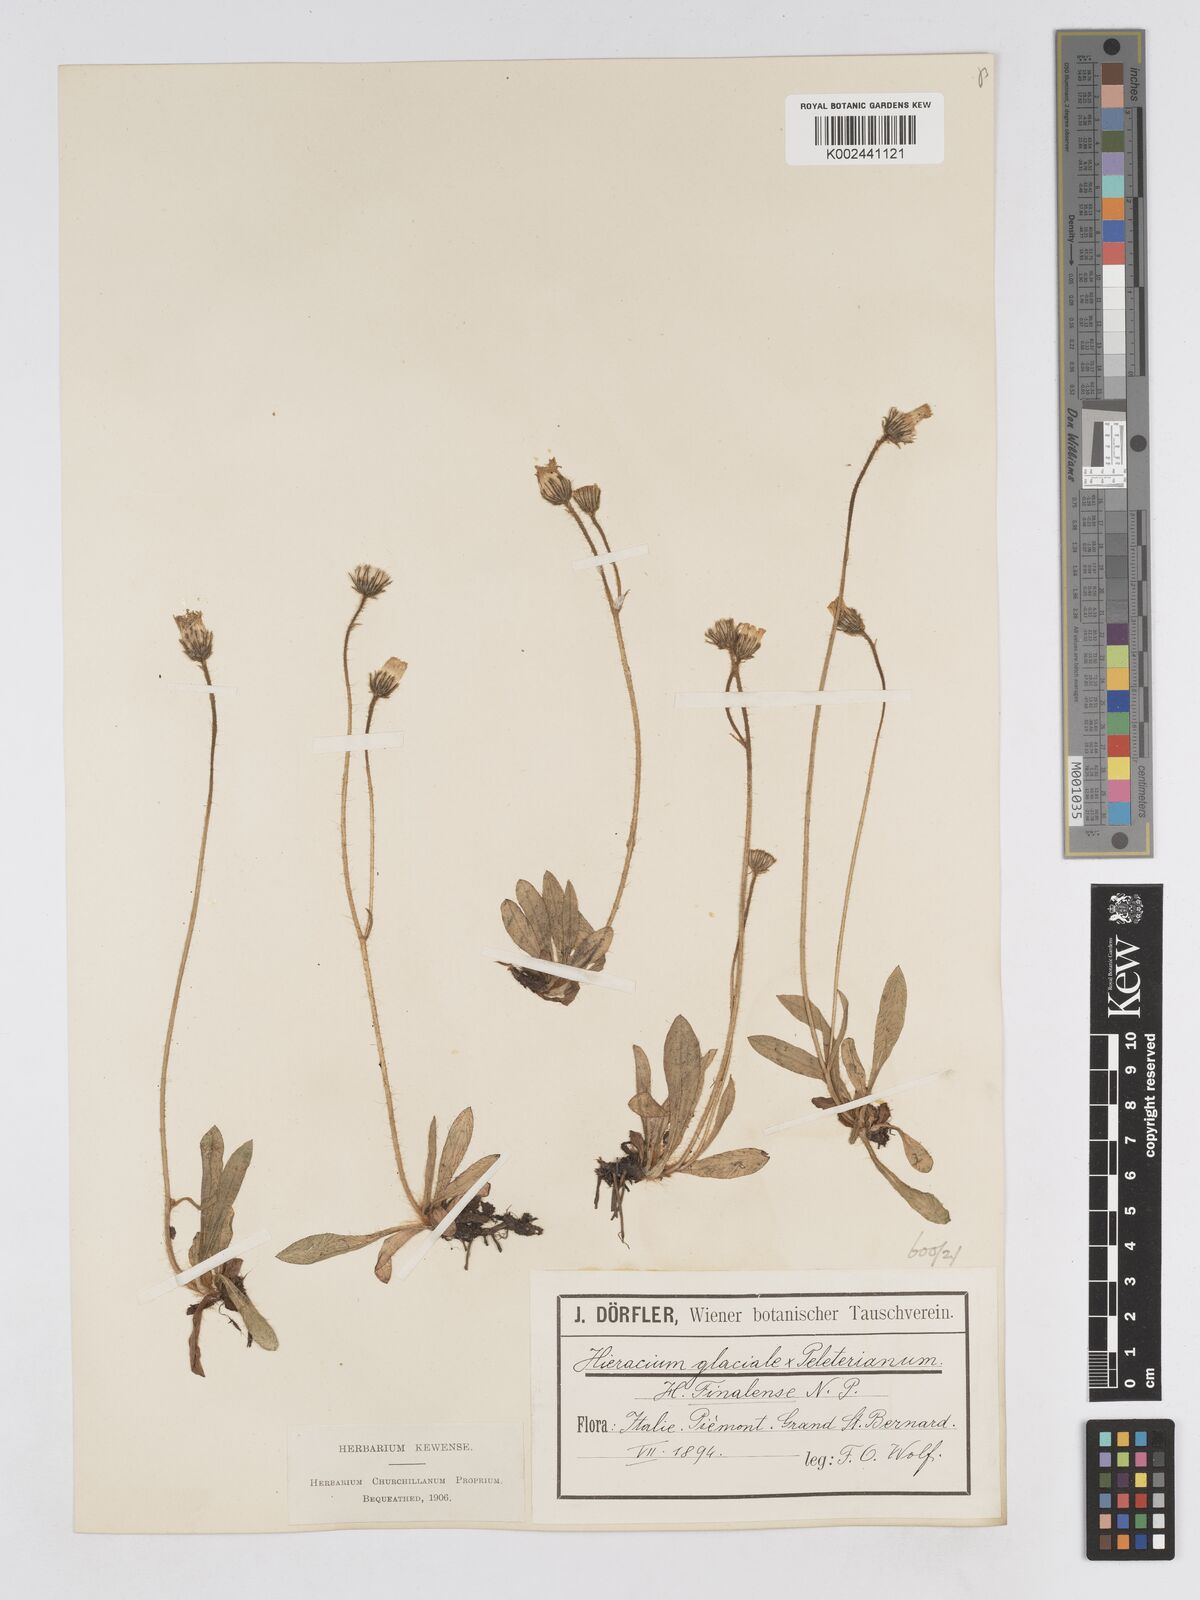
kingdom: Plantae
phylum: Tracheophyta
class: Magnoliopsida
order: Asterales
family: Asteraceae
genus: Pilosella
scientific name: Pilosella subrubens
